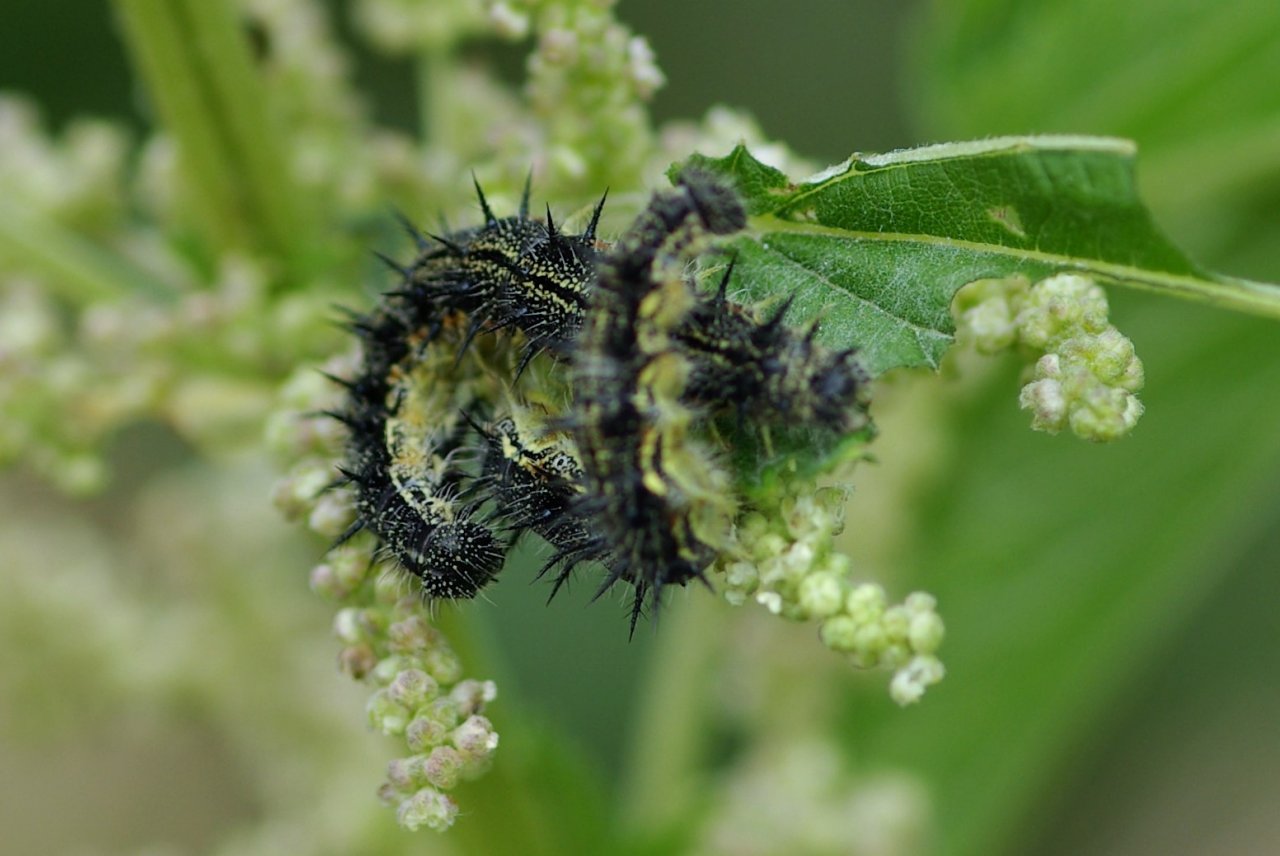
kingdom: Animalia
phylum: Arthropoda
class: Insecta
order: Lepidoptera
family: Nymphalidae
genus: Aglais
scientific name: Aglais milberti
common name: Milbert's Tortoiseshell
